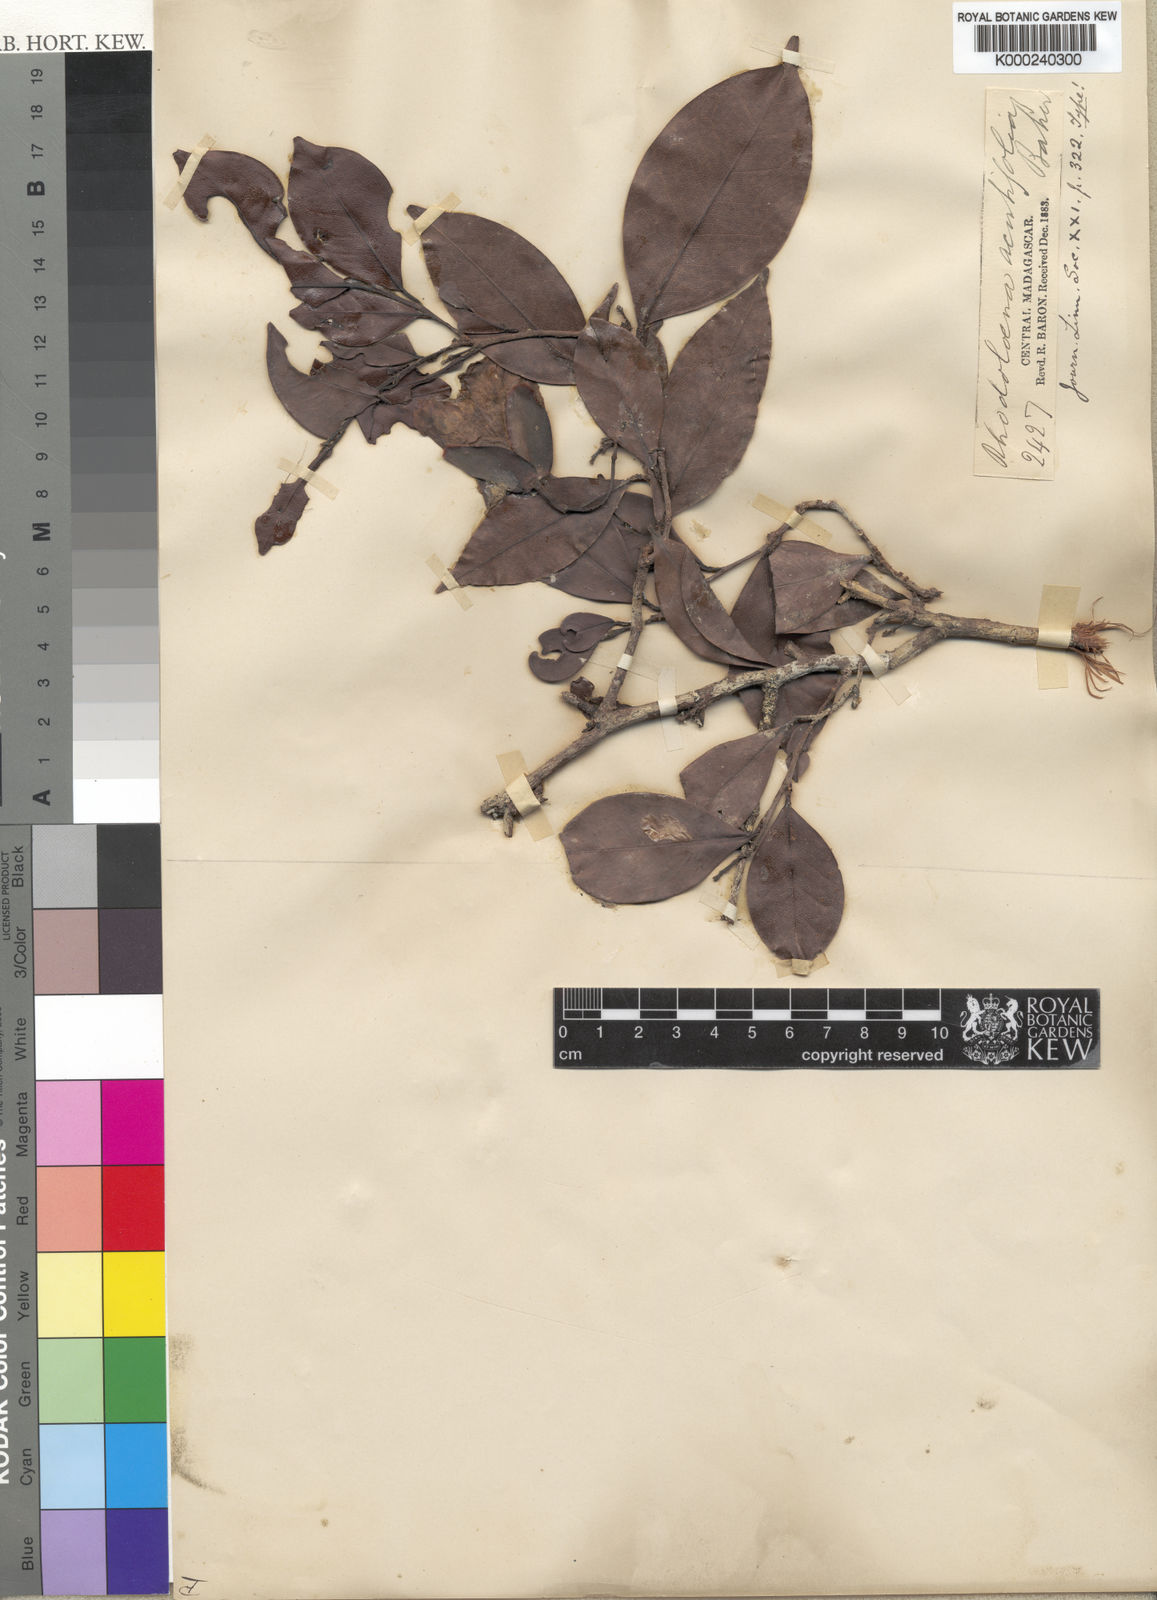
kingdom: Plantae
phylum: Tracheophyta
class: Magnoliopsida
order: Malvales
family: Sarcolaenaceae
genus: Rhodolaena
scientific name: Rhodolaena acutifolia
